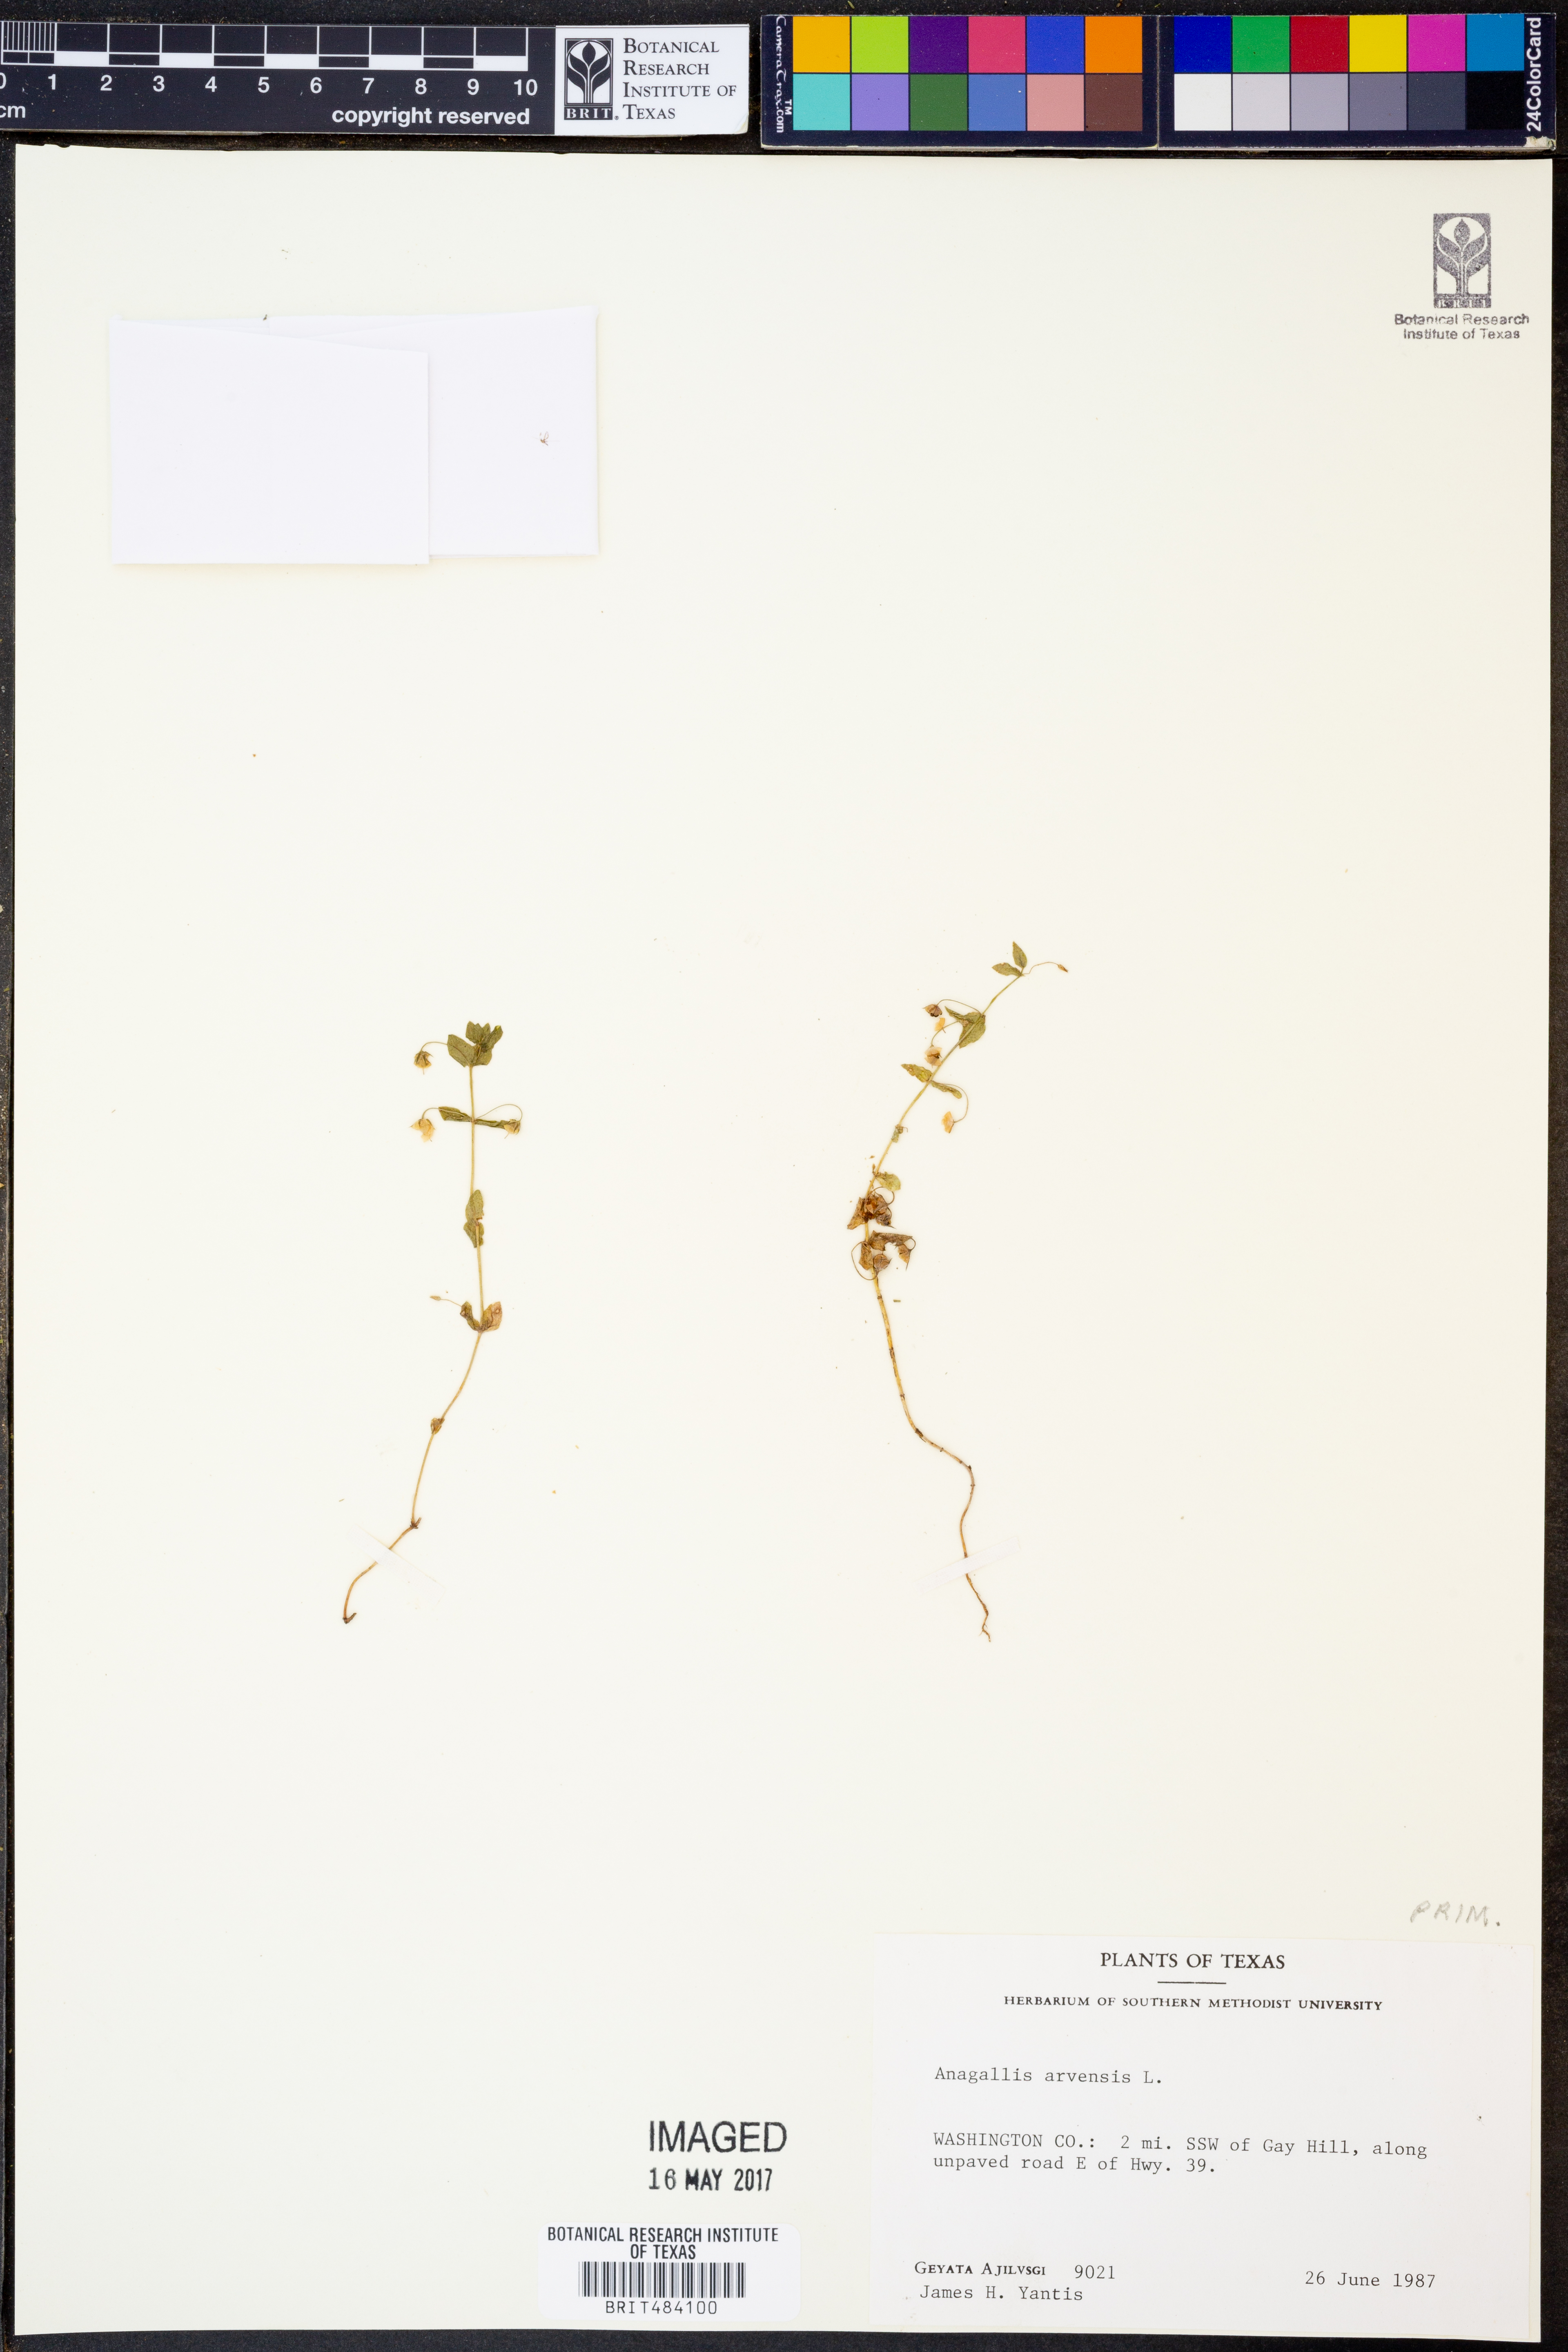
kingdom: Plantae
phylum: Tracheophyta
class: Magnoliopsida
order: Ericales
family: Primulaceae
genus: Lysimachia
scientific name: Lysimachia arvensis
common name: Scarlet pimpernel
